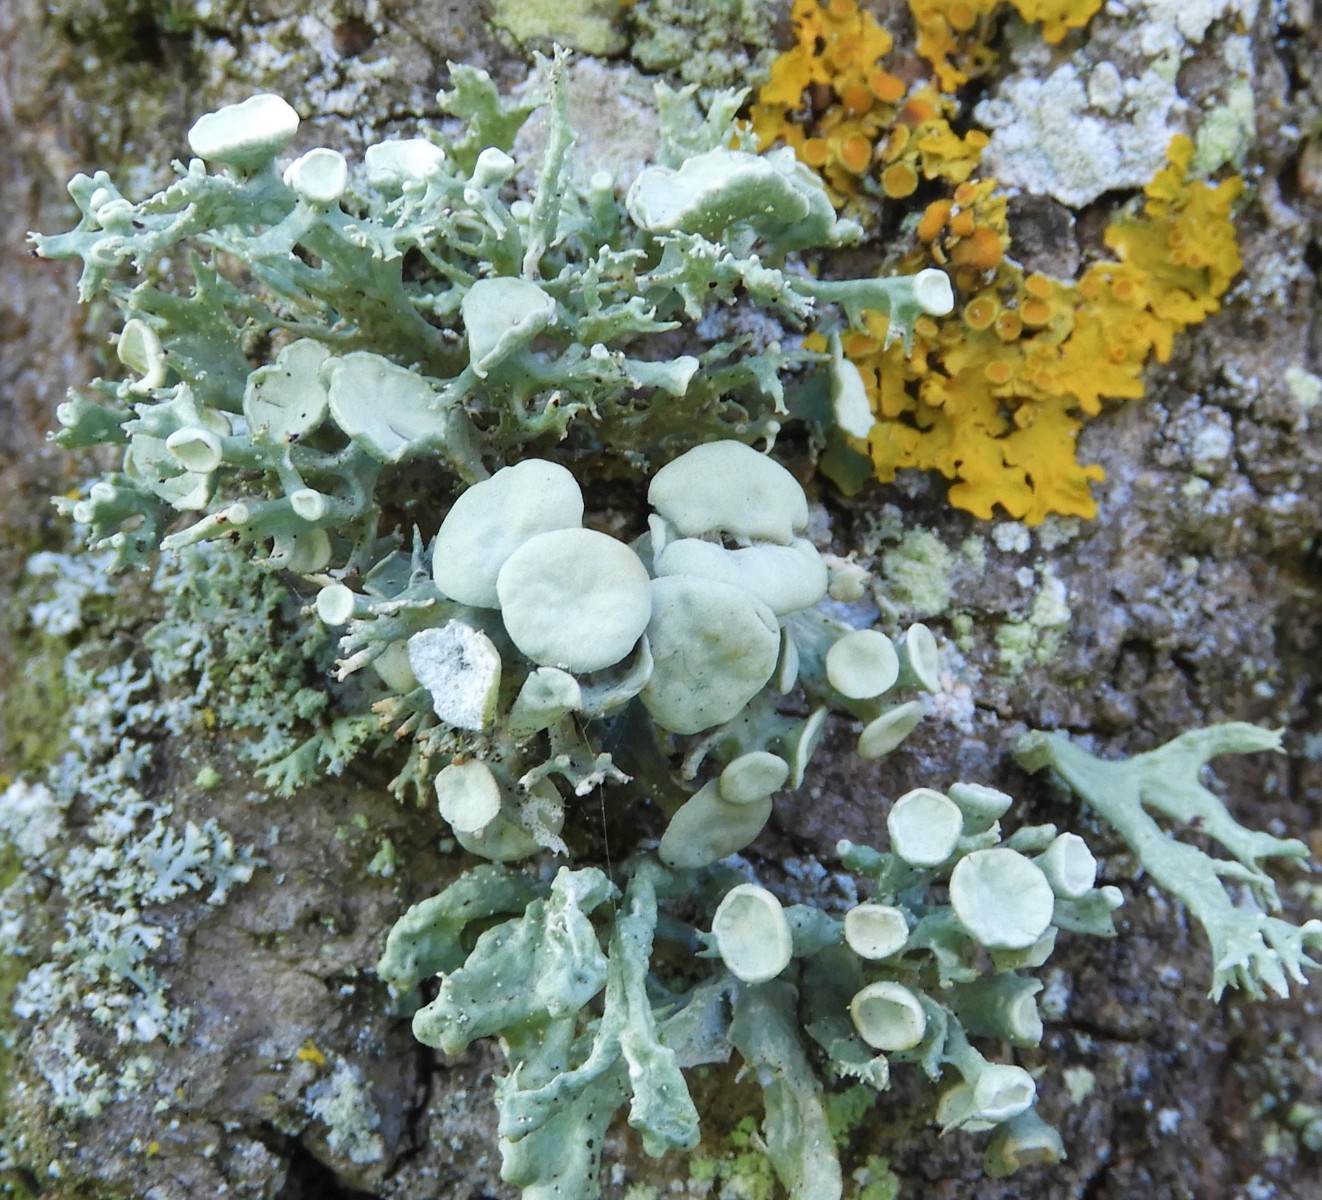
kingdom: Fungi
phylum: Ascomycota
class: Lecanoromycetes
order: Lecanorales
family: Ramalinaceae
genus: Ramalina
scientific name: Ramalina fastigiata
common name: tue-grenlav
